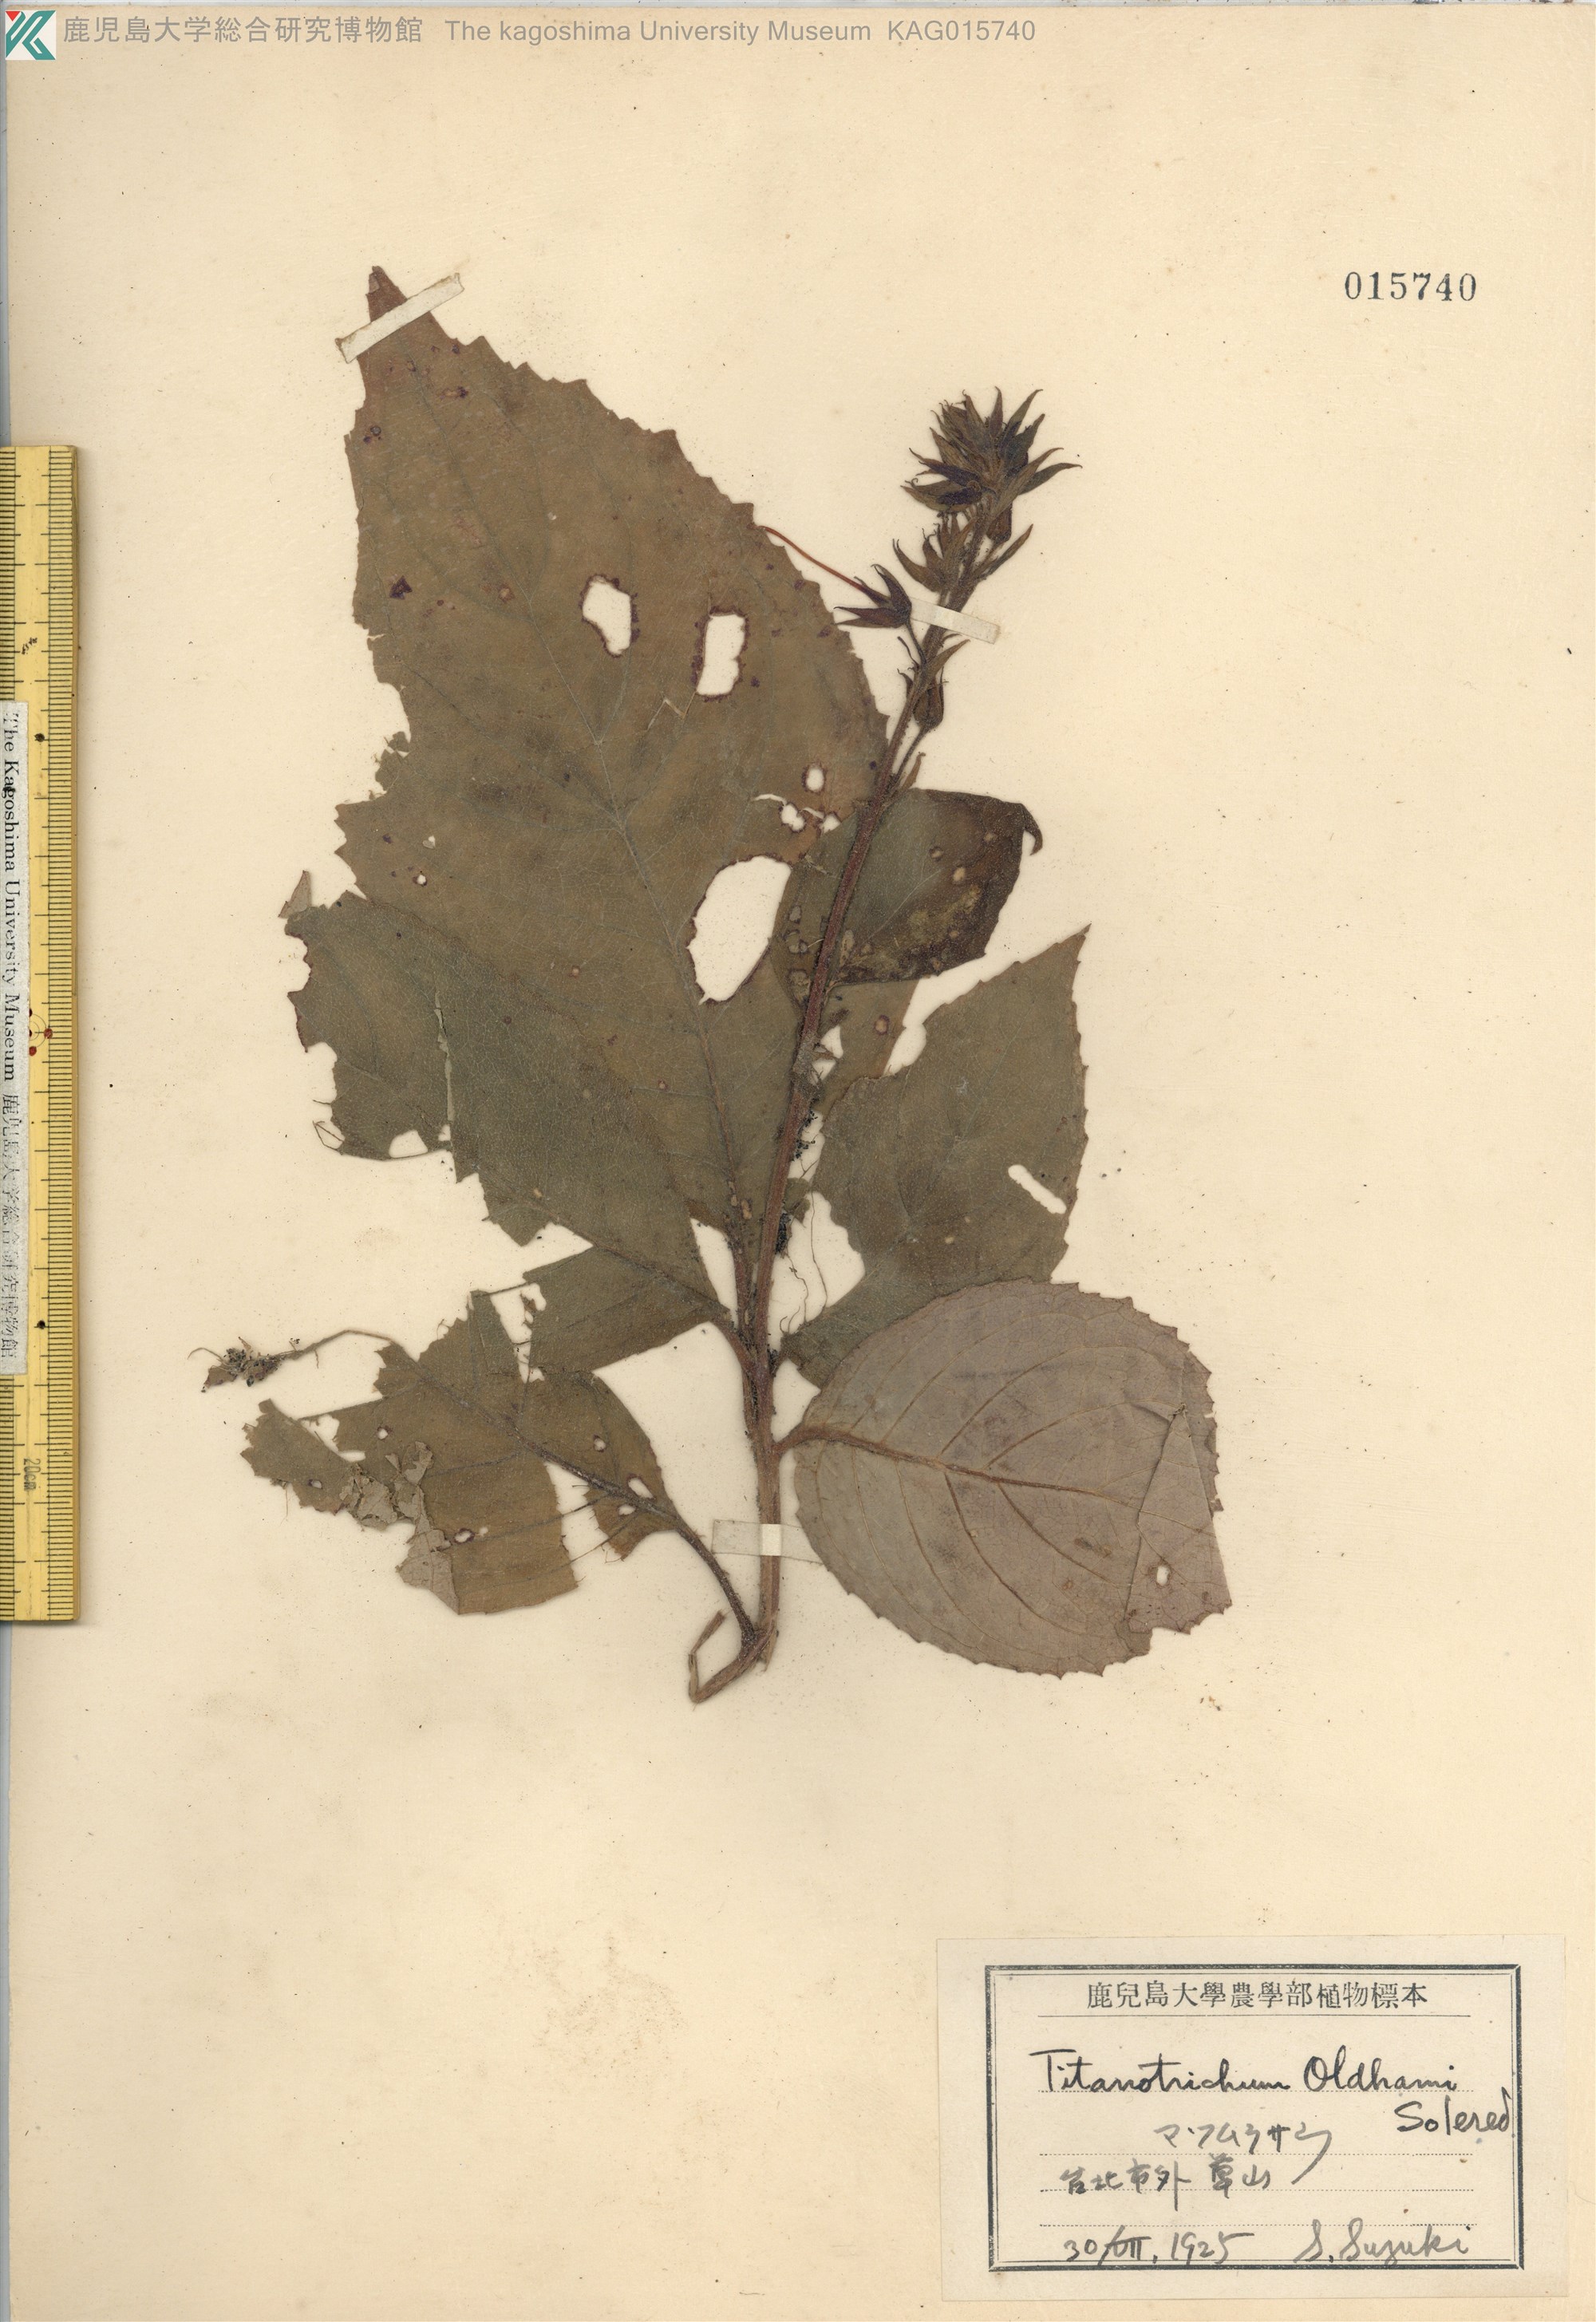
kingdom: Plantae
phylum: Tracheophyta
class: Magnoliopsida
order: Lamiales
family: Gesneriaceae
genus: Titanotrichum
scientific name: Titanotrichum oldhamii
